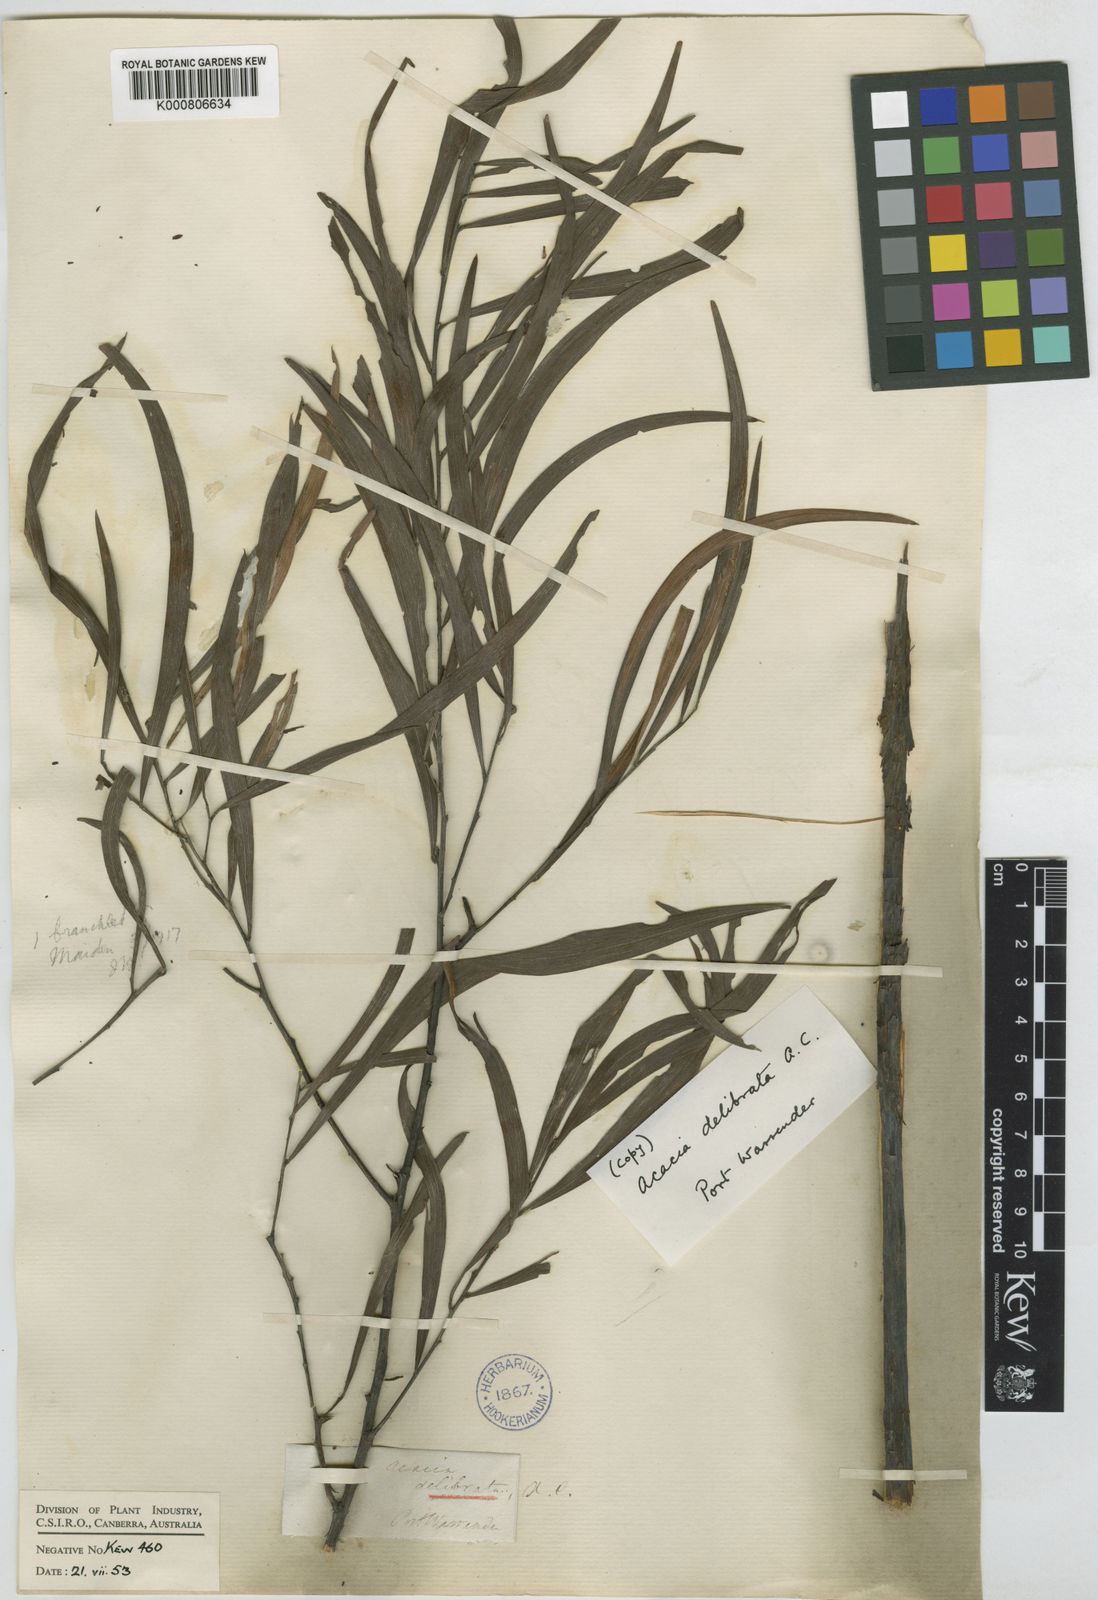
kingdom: Plantae
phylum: Tracheophyta
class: Magnoliopsida
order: Fabales
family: Fabaceae
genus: Acacia
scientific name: Acacia
